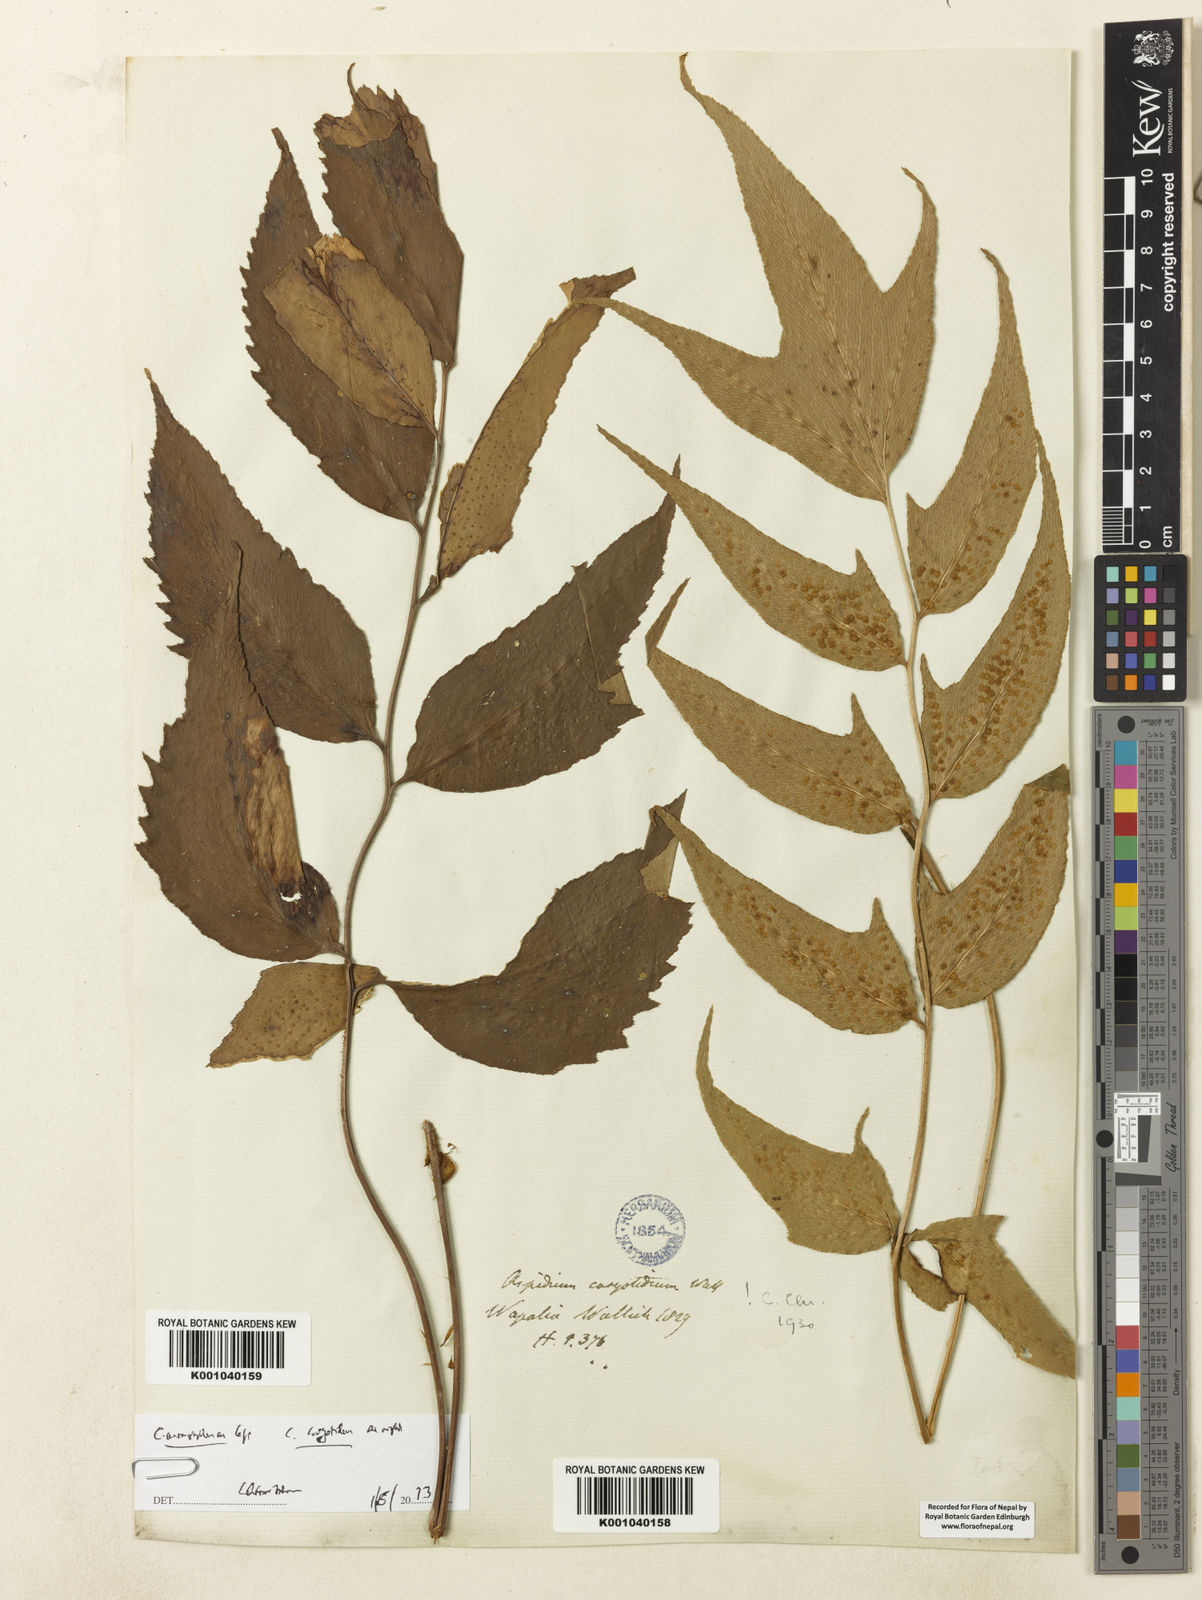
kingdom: Plantae
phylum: Tracheophyta
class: Polypodiopsida
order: Polypodiales
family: Dryopteridaceae
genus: Cyrtomium
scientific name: Cyrtomium caryotideum
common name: Asiatic holly fern
